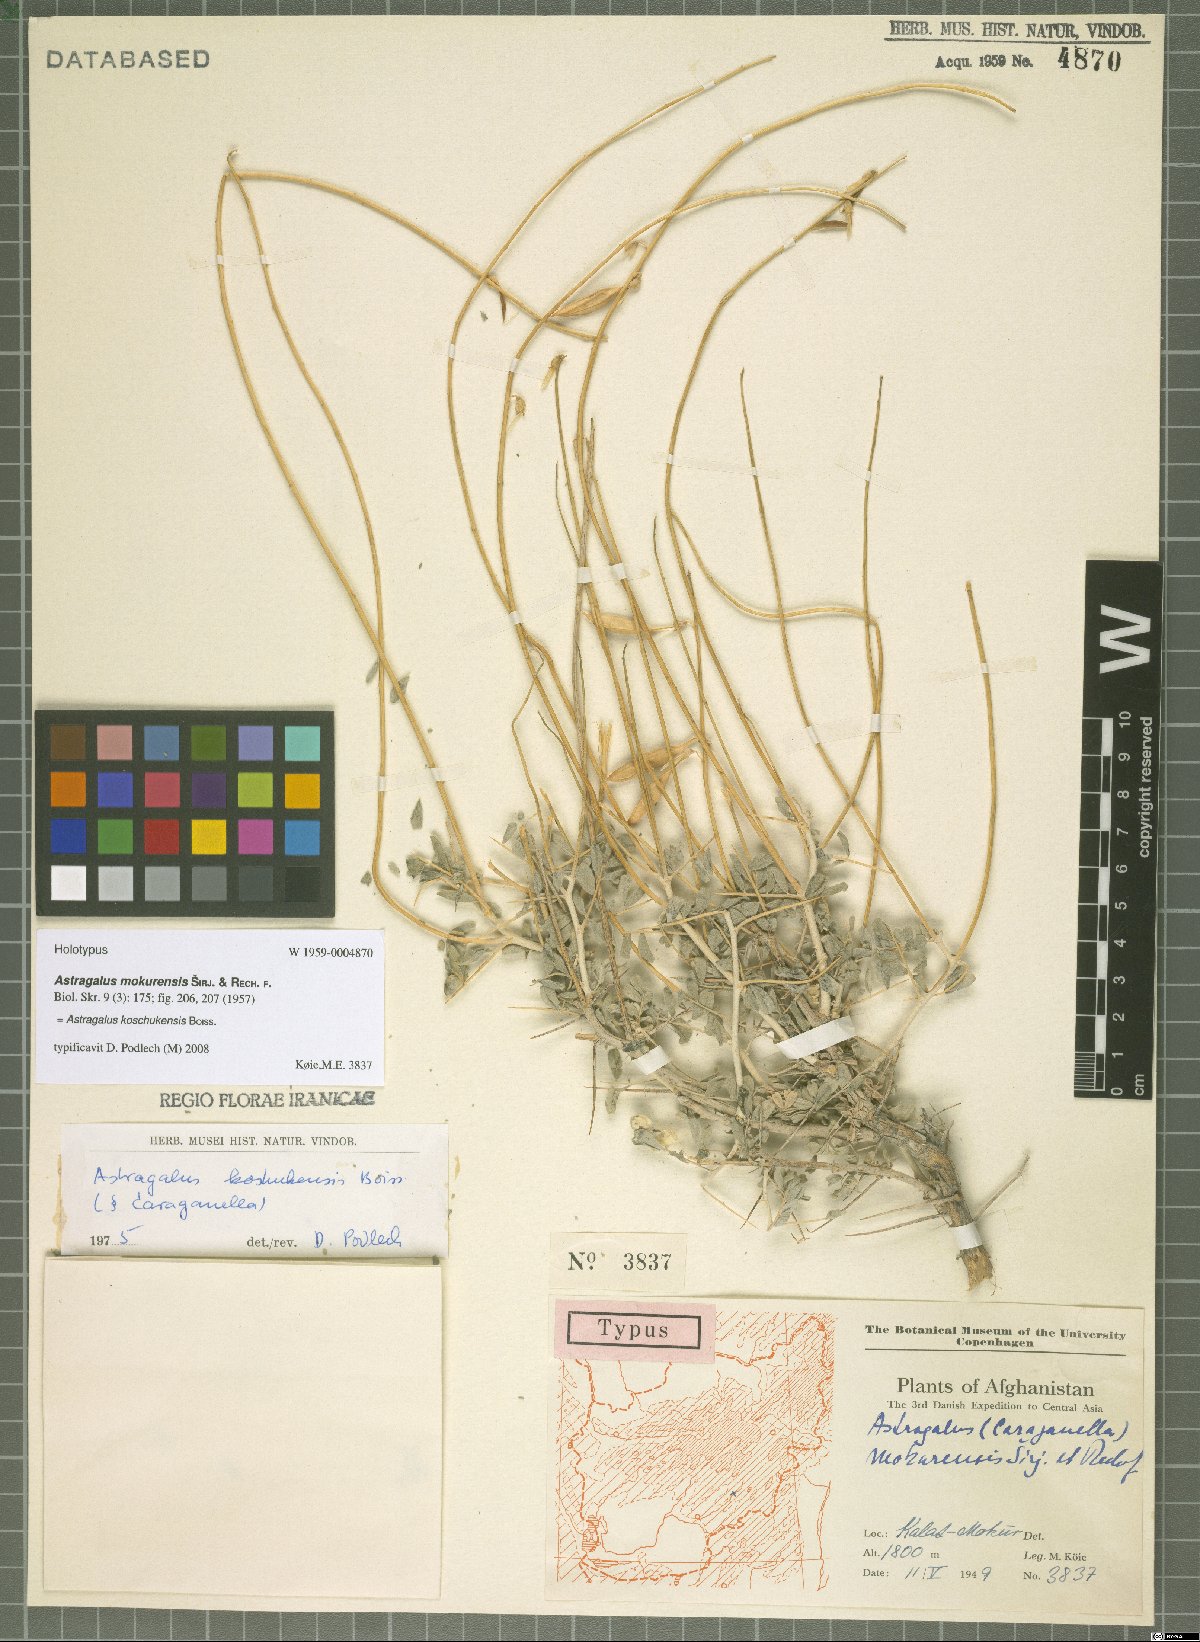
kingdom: Plantae
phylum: Tracheophyta
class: Magnoliopsida
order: Fabales
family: Fabaceae
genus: Astragalus
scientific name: Astragalus koschukensis
